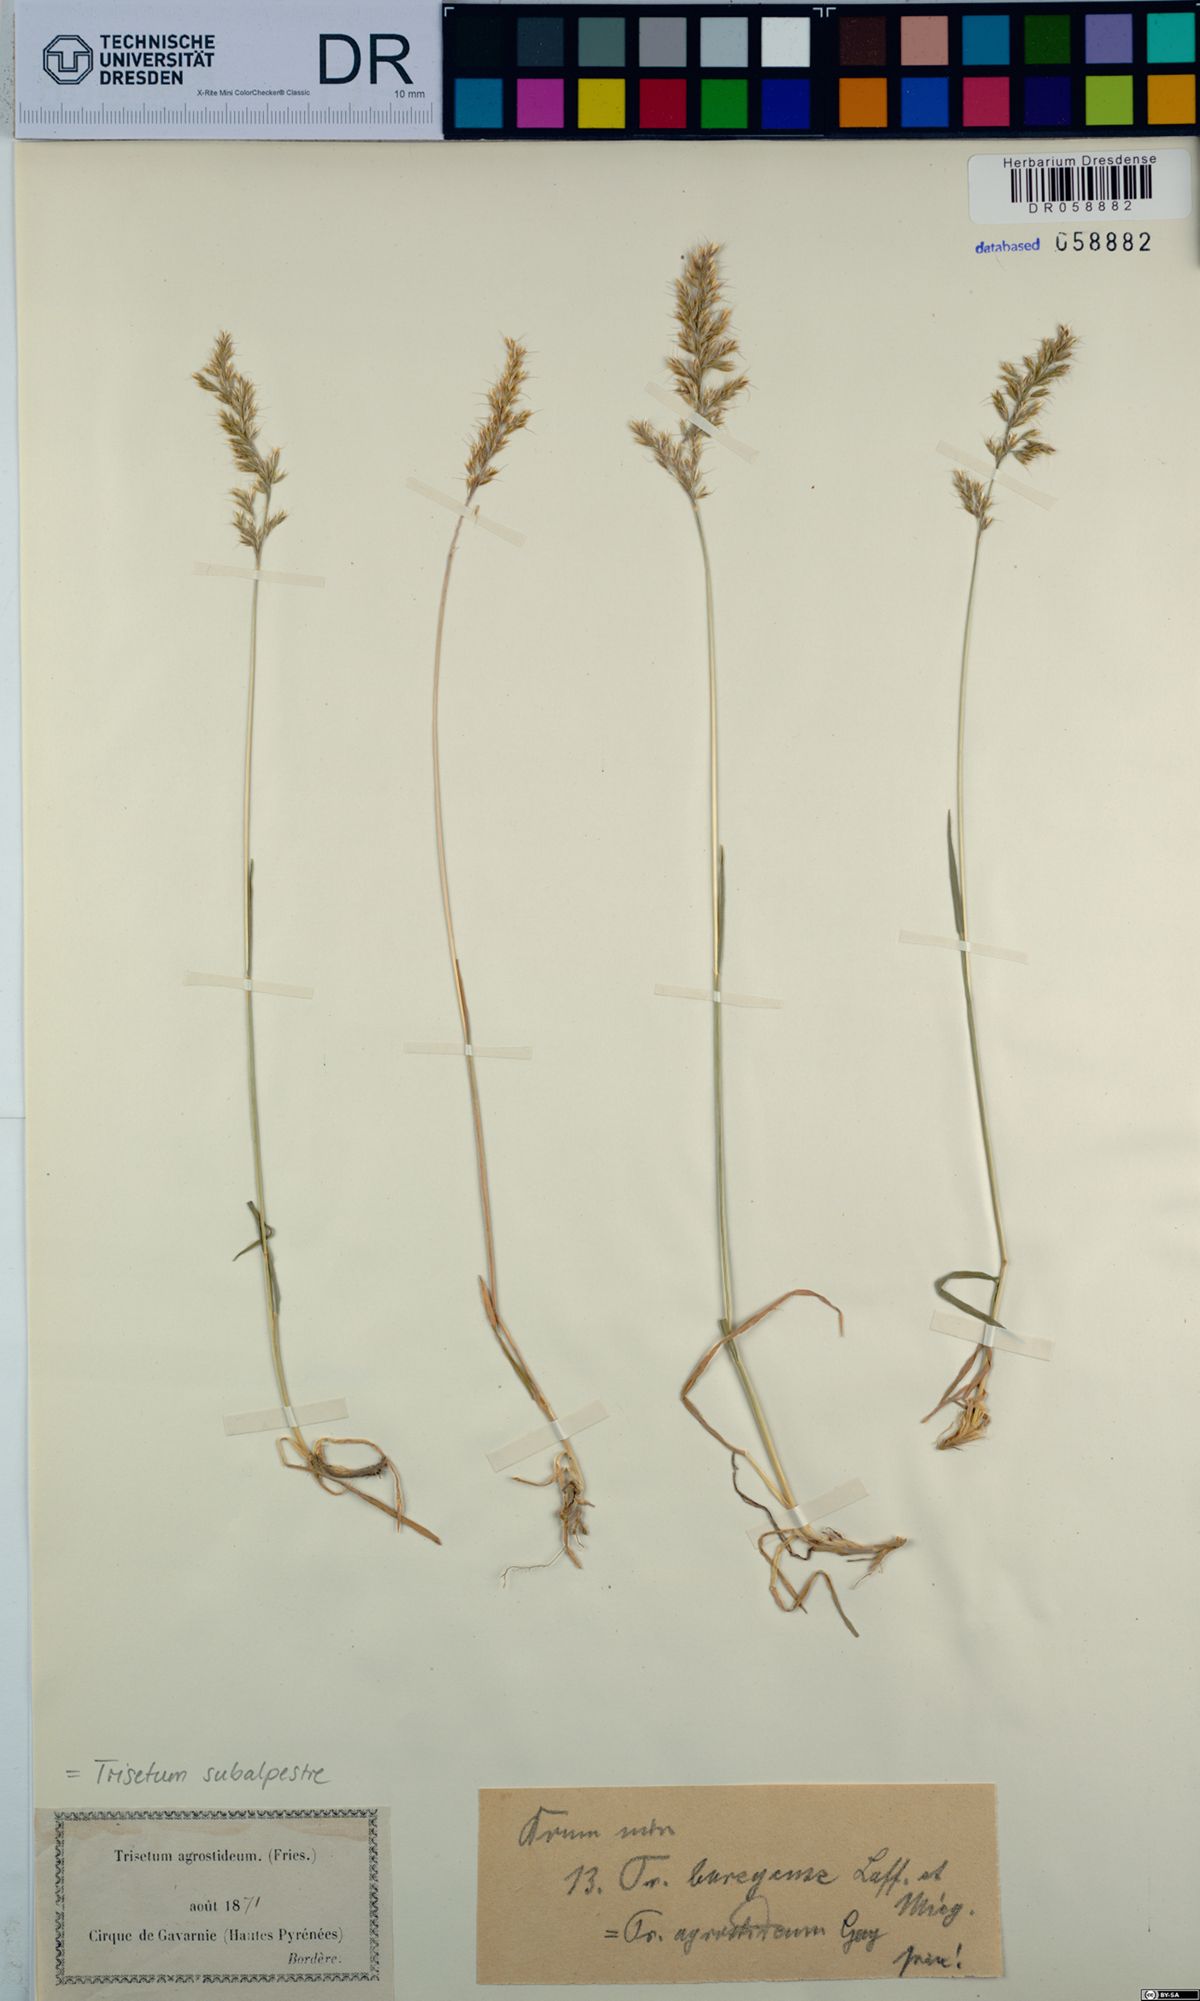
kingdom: Plantae
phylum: Tracheophyta
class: Liliopsida
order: Poales
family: Poaceae
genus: Koeleria
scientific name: Koeleria subalpestris
